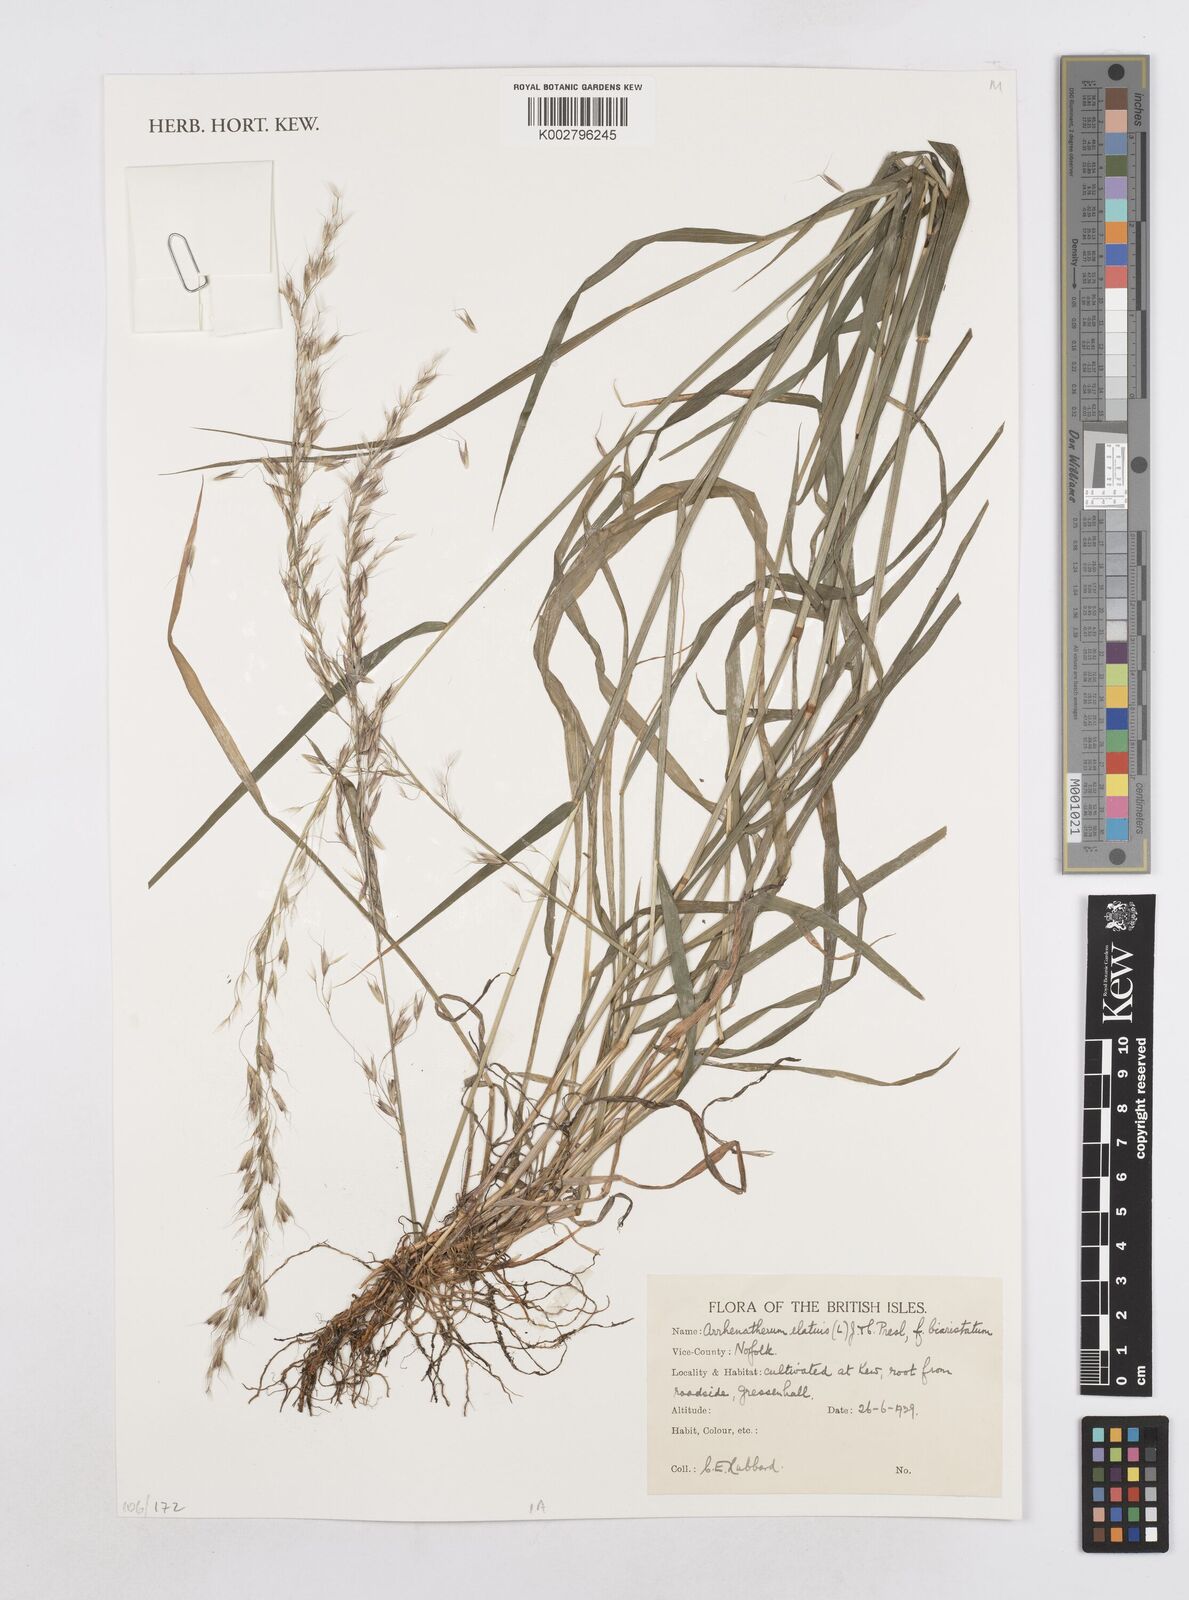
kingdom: Plantae
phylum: Tracheophyta
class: Liliopsida
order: Poales
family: Poaceae
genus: Arrhenatherum
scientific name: Arrhenatherum elatius
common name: Tall oatgrass
